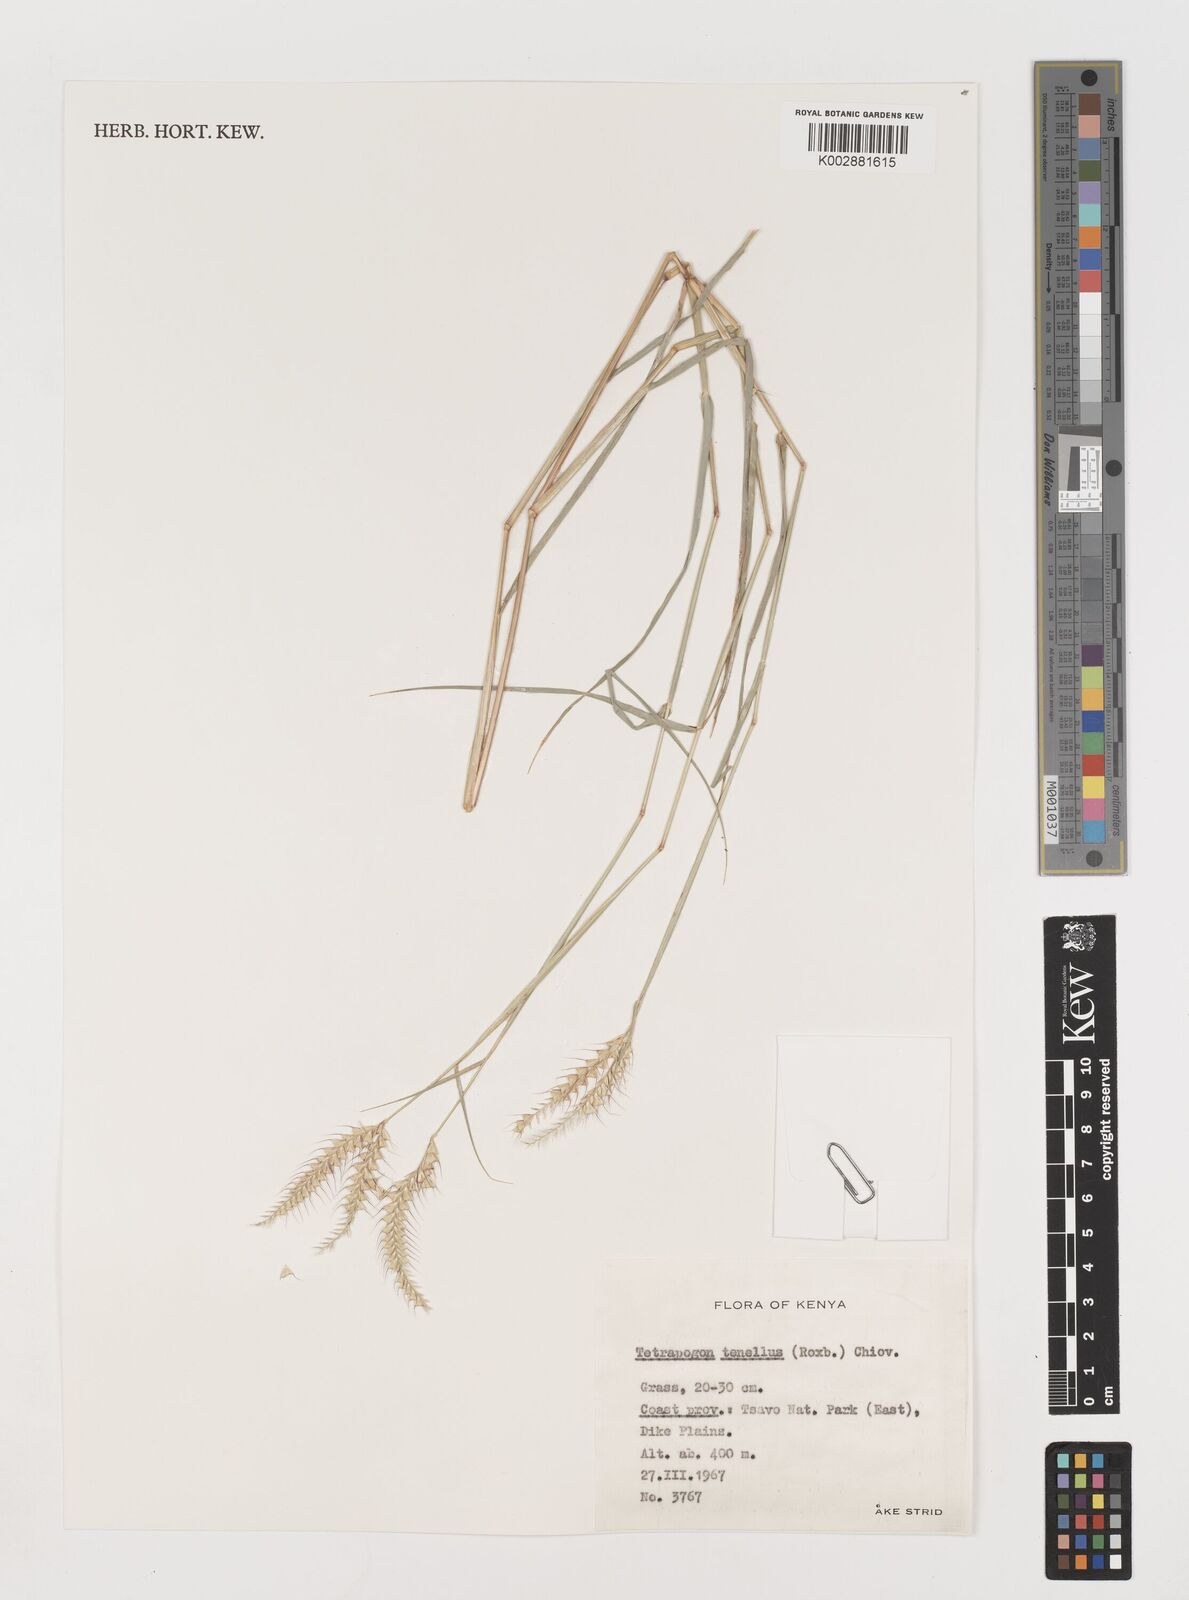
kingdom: Plantae
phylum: Tracheophyta
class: Liliopsida
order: Poales
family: Poaceae
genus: Tetrapogon
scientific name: Tetrapogon tenellus
